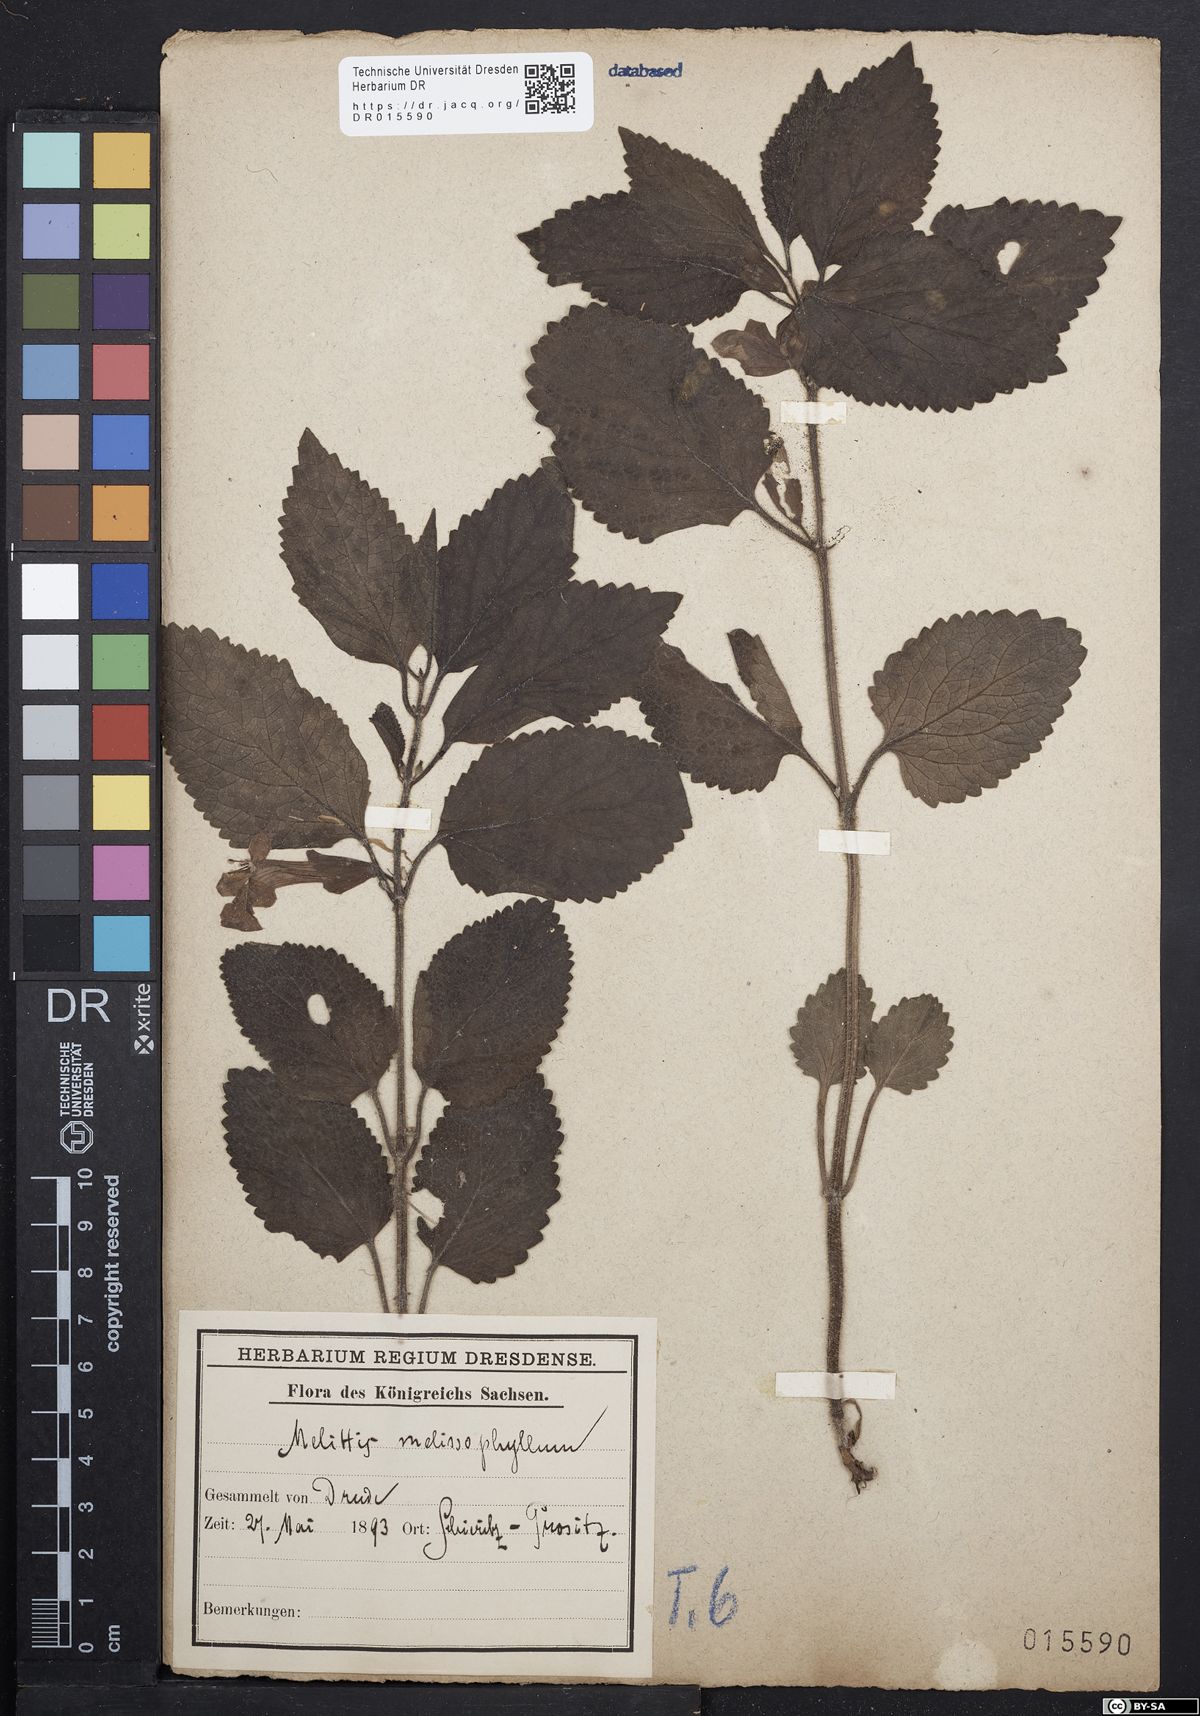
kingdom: Plantae
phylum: Tracheophyta
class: Magnoliopsida
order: Lamiales
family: Lamiaceae
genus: Melittis
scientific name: Melittis melissophyllum
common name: Bastard balm
